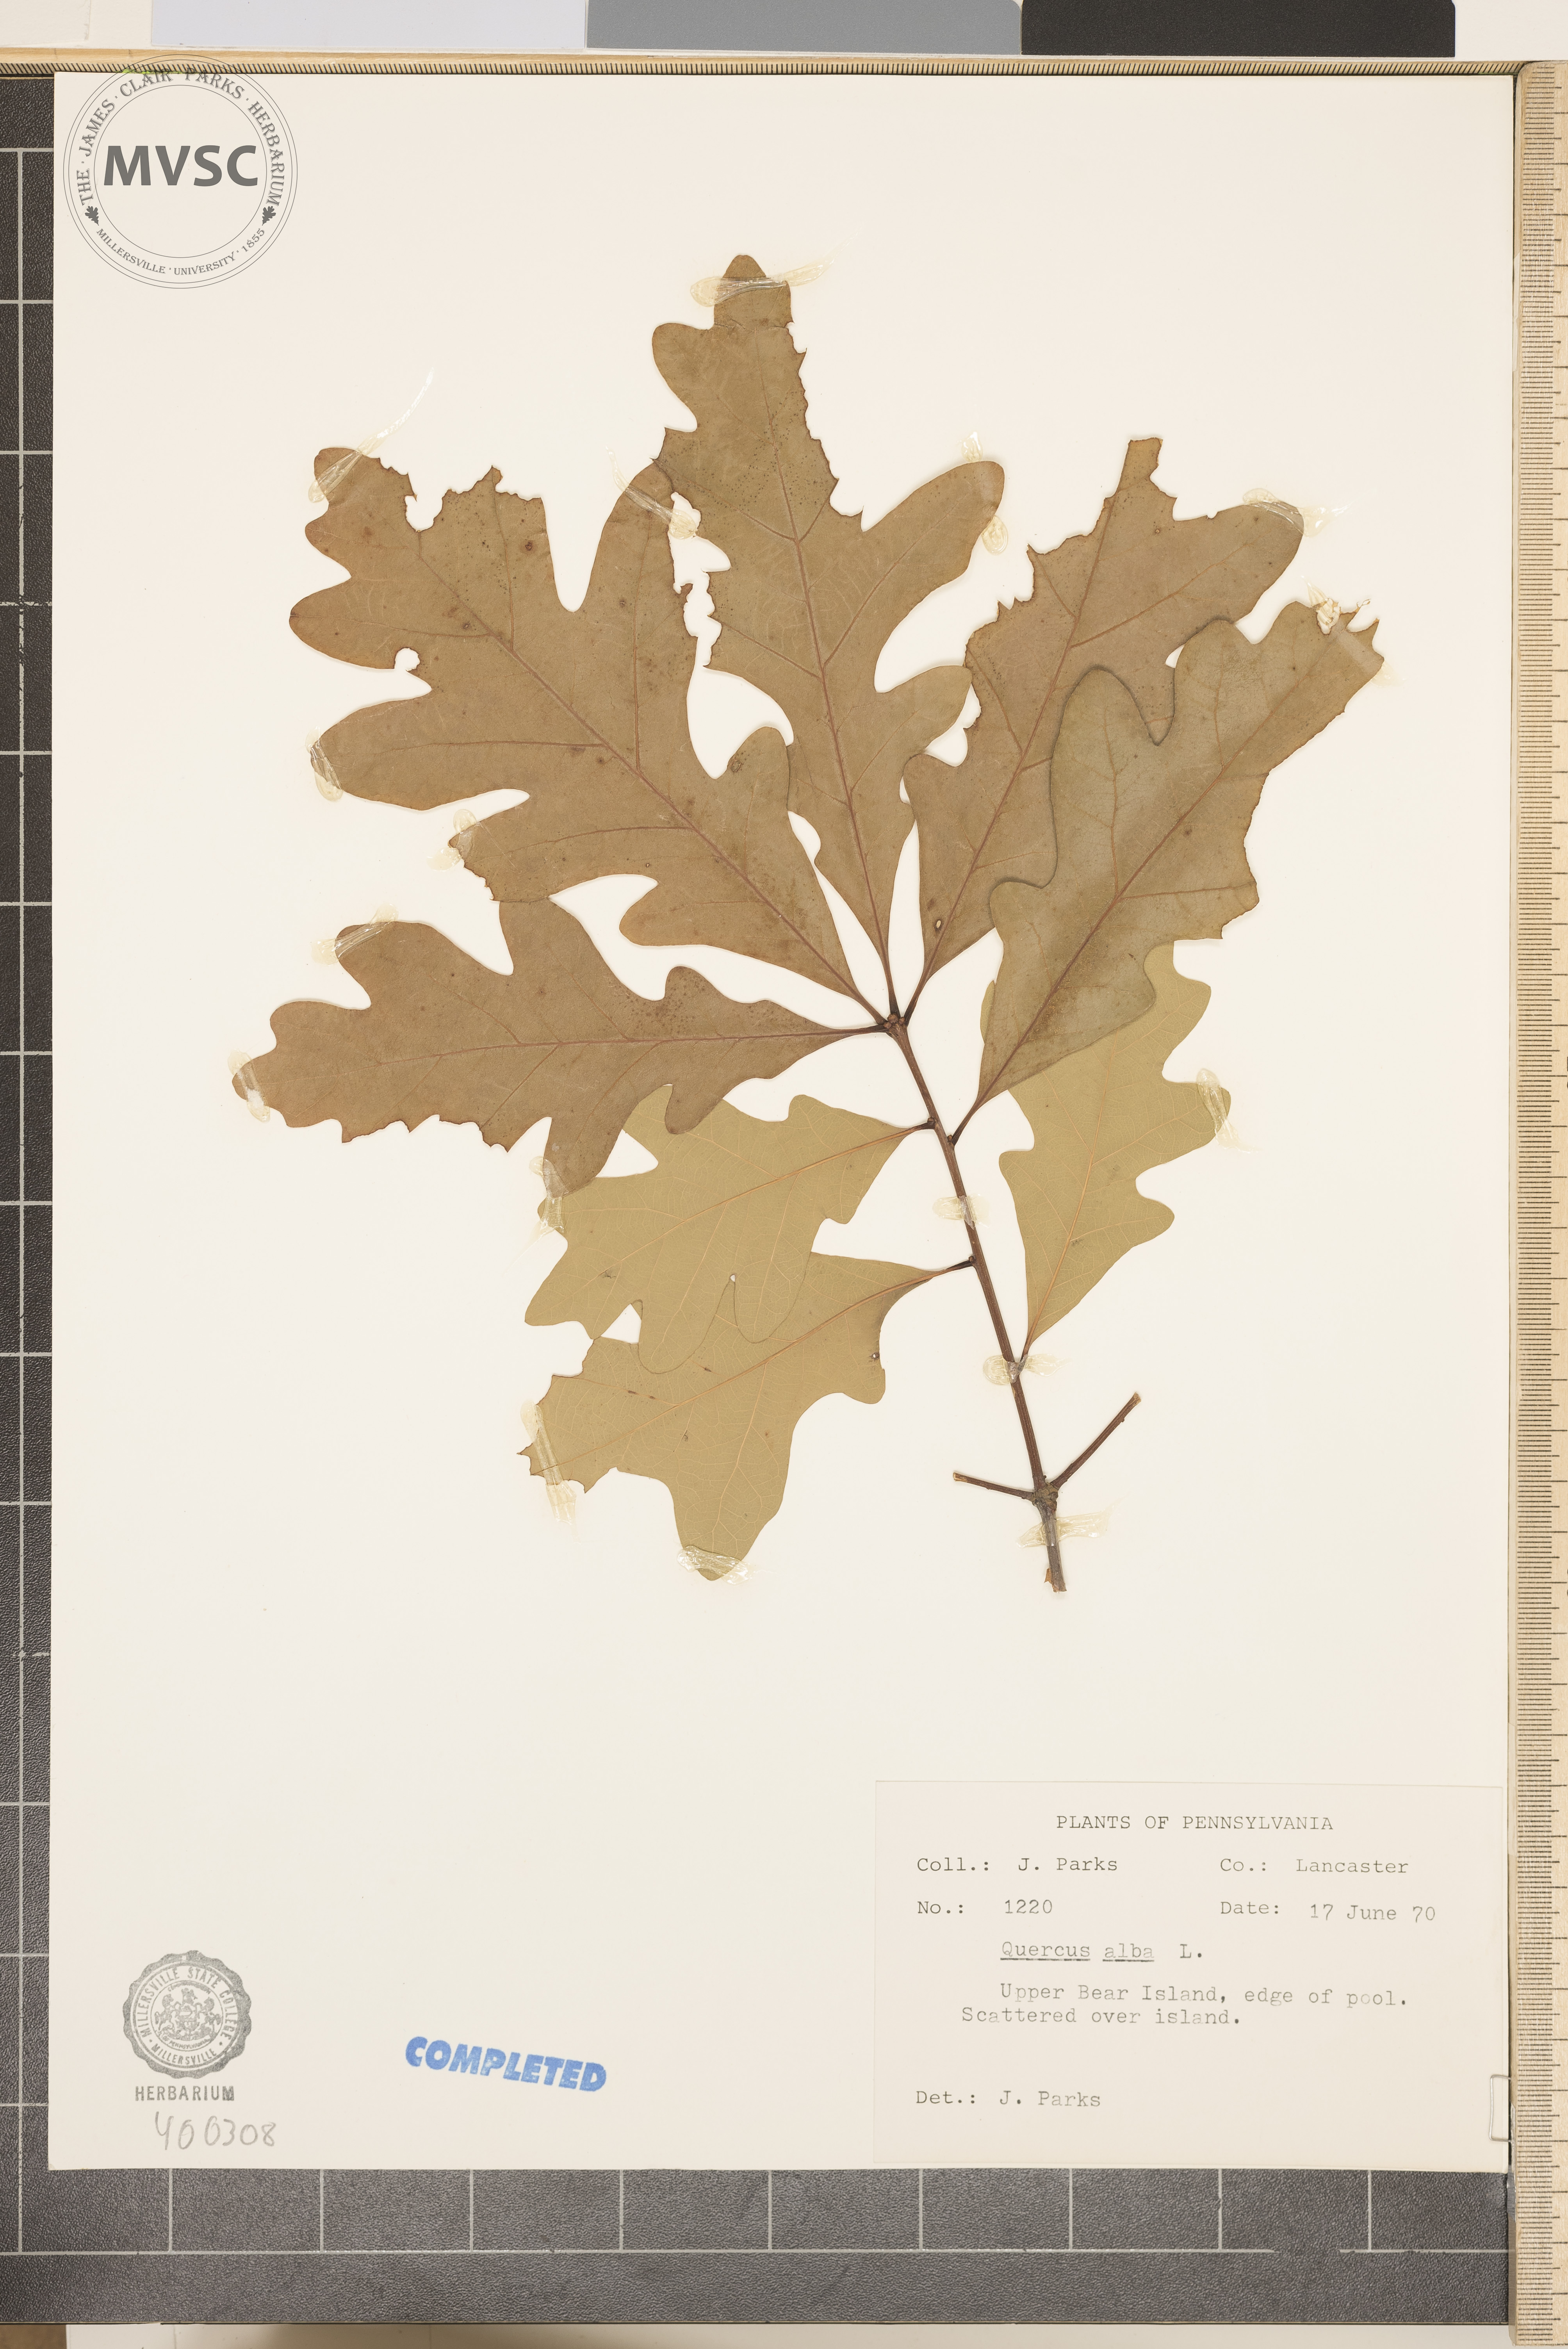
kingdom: Plantae
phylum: Tracheophyta
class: Magnoliopsida
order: Fagales
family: Fagaceae
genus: Quercus
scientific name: Quercus alba
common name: white oak
